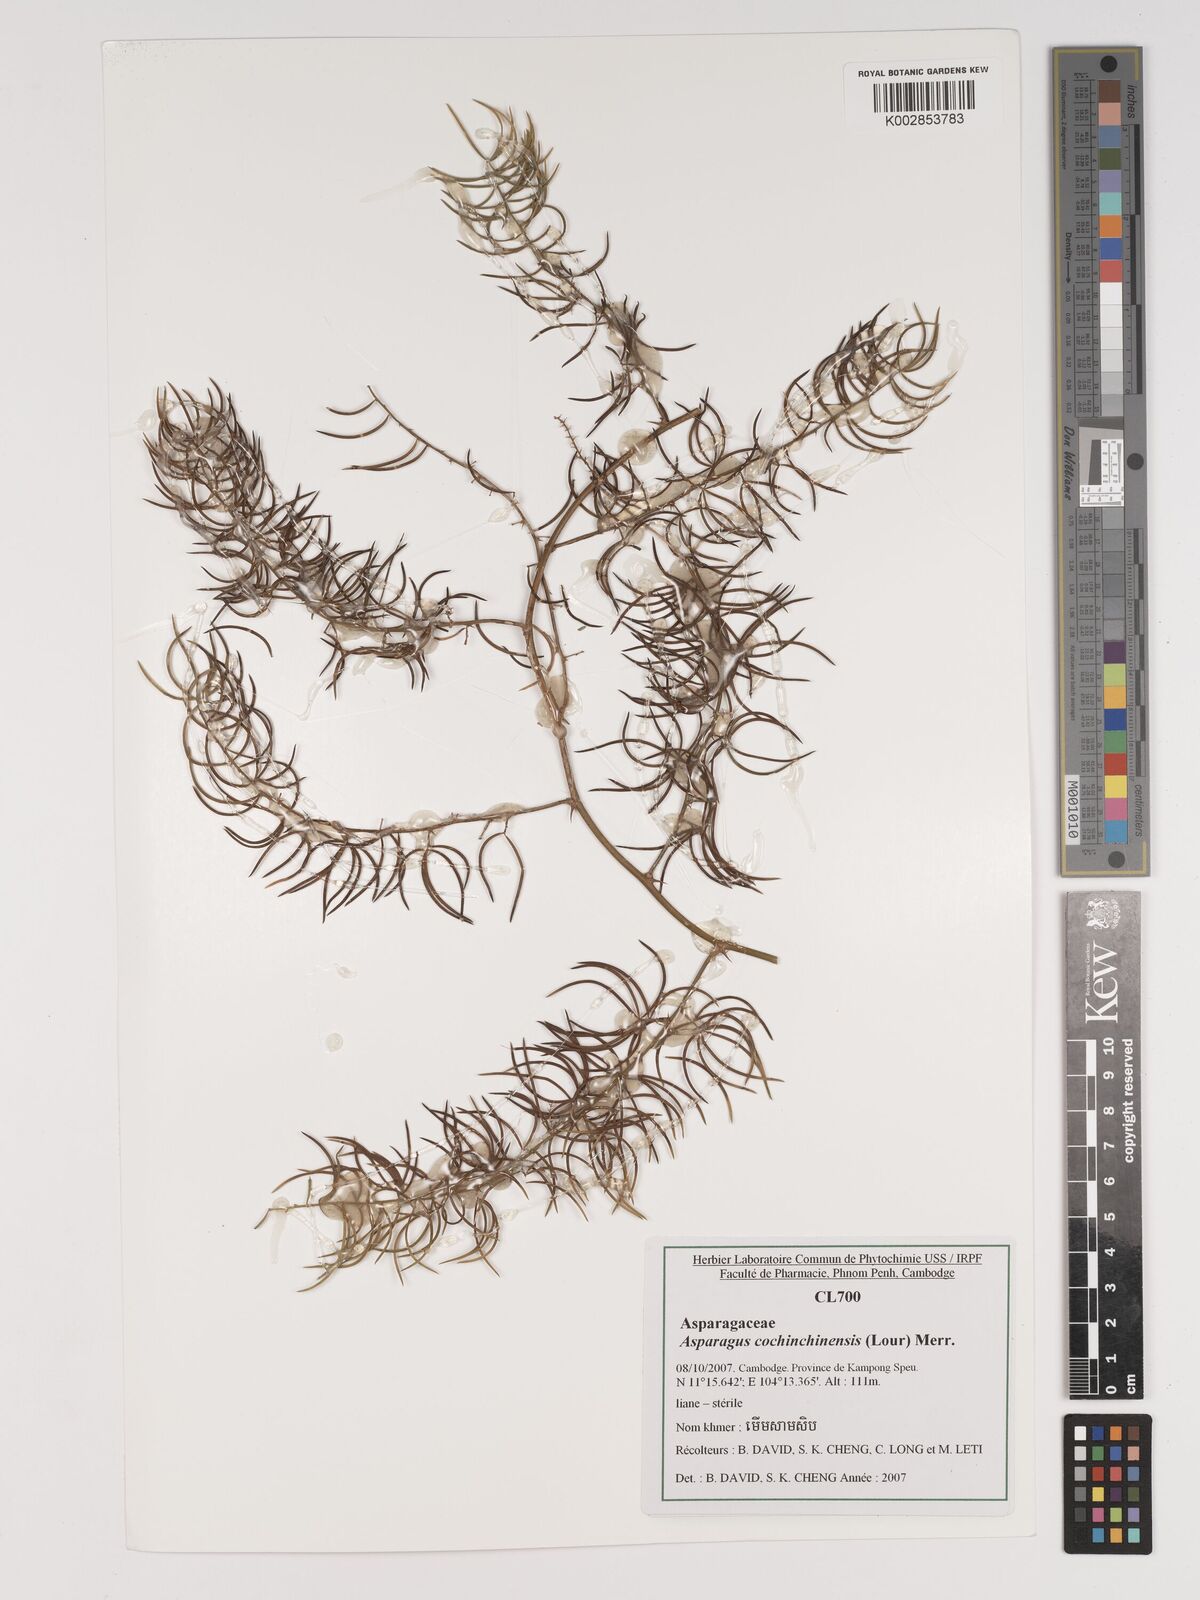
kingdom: Plantae
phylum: Tracheophyta
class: Liliopsida
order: Asparagales
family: Asparagaceae
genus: Asparagus
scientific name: Asparagus cochinchinensis
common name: Chinese asparagus
